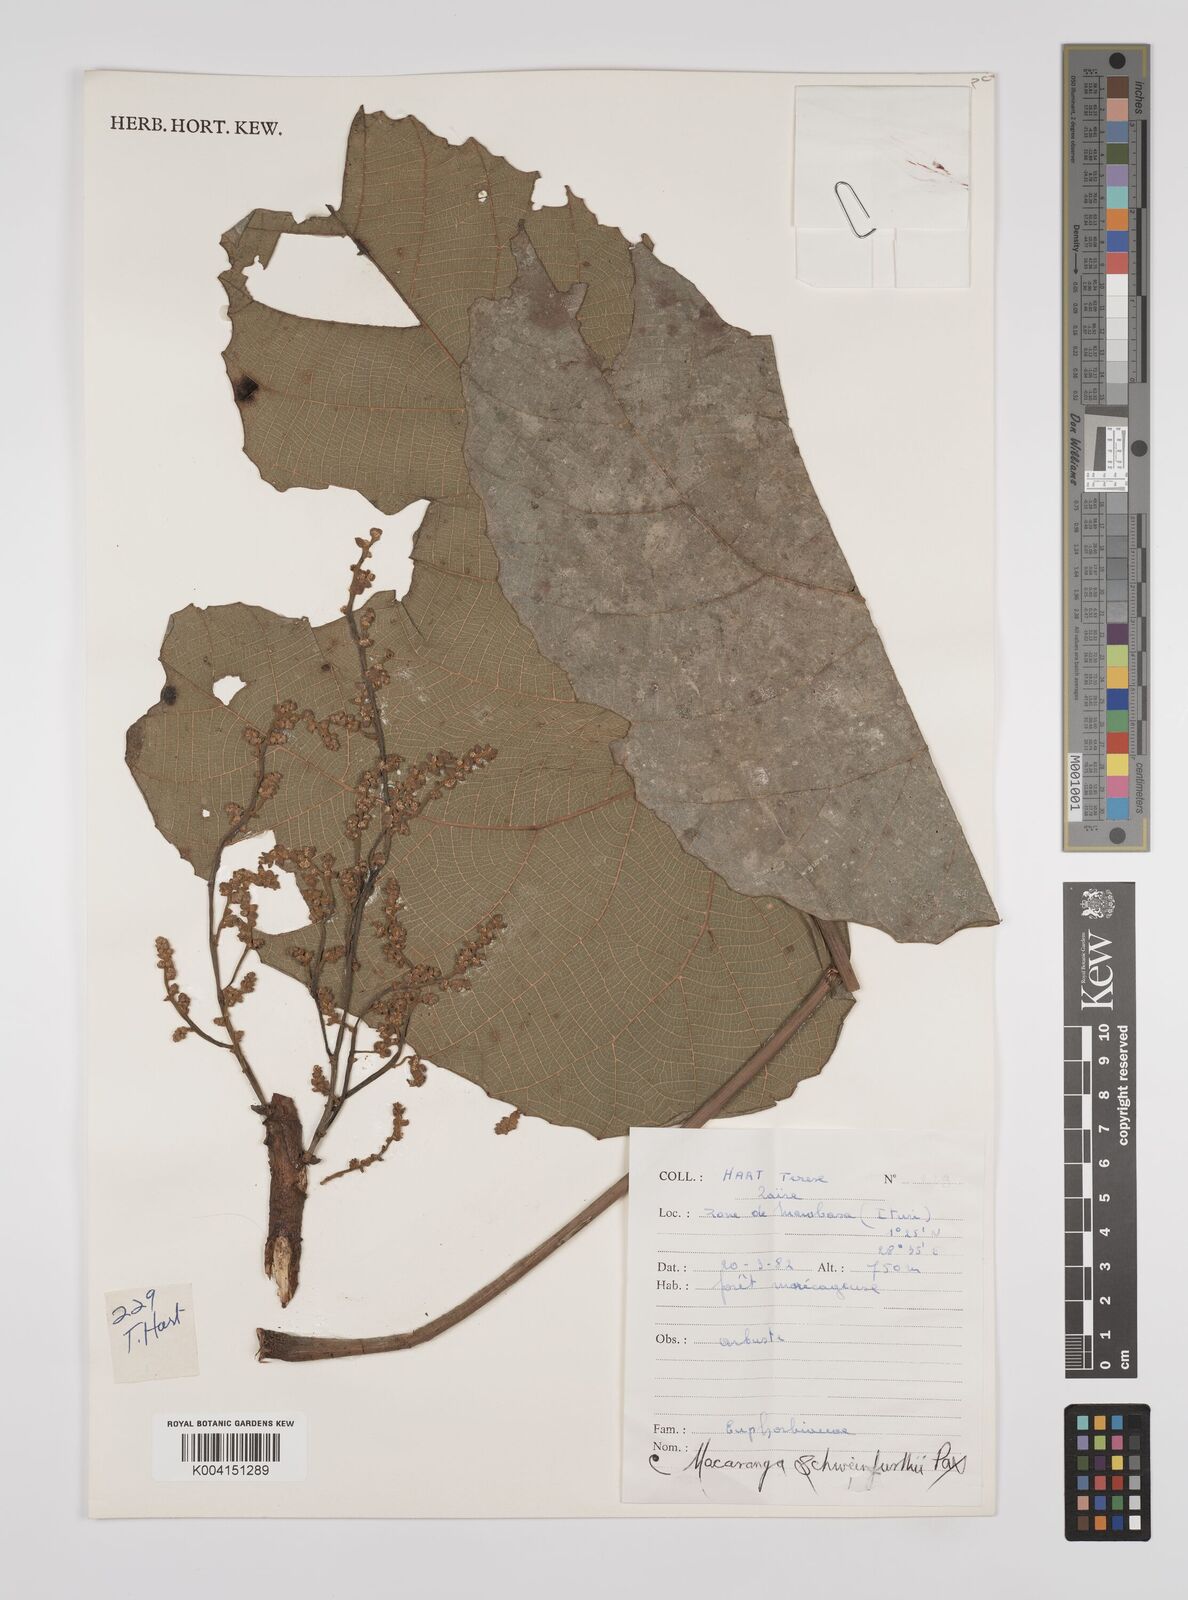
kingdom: Plantae
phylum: Tracheophyta
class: Magnoliopsida
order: Malpighiales
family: Euphorbiaceae
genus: Macaranga
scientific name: Macaranga schweinfurthii
